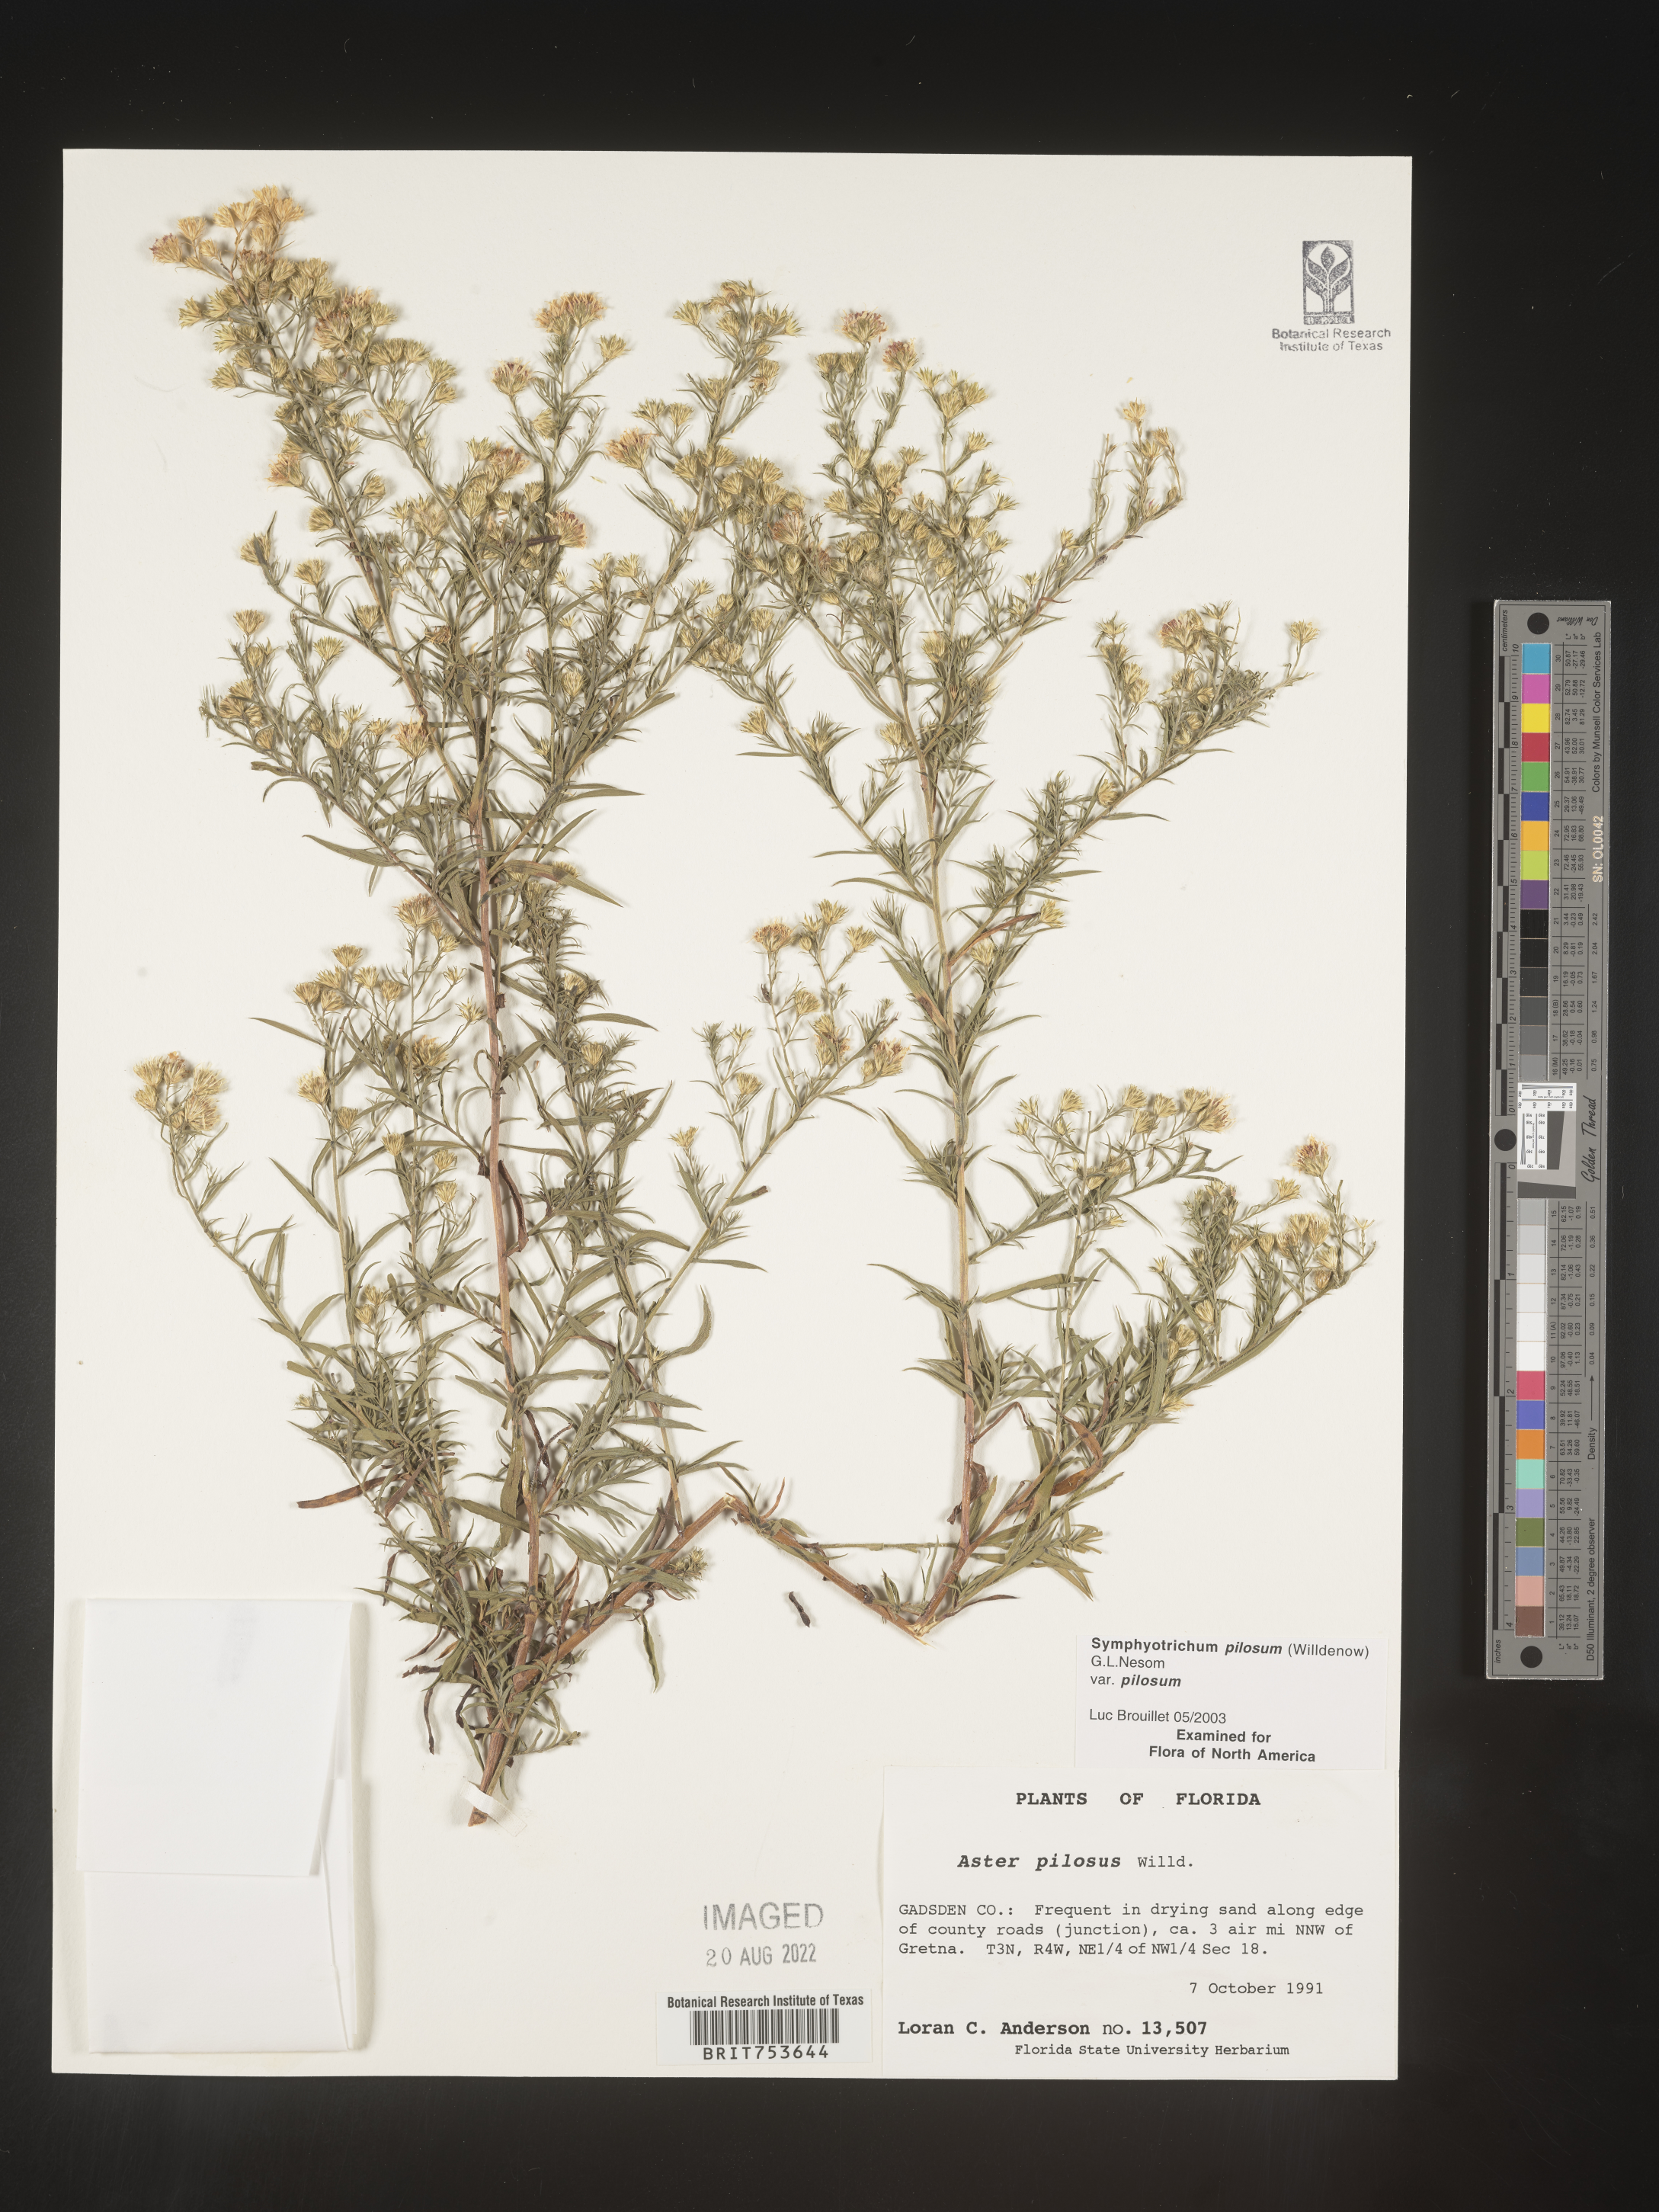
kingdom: Plantae
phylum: Tracheophyta
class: Magnoliopsida
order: Asterales
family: Asteraceae
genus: Symphyotrichum
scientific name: Symphyotrichum pilosum
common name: Awl aster
